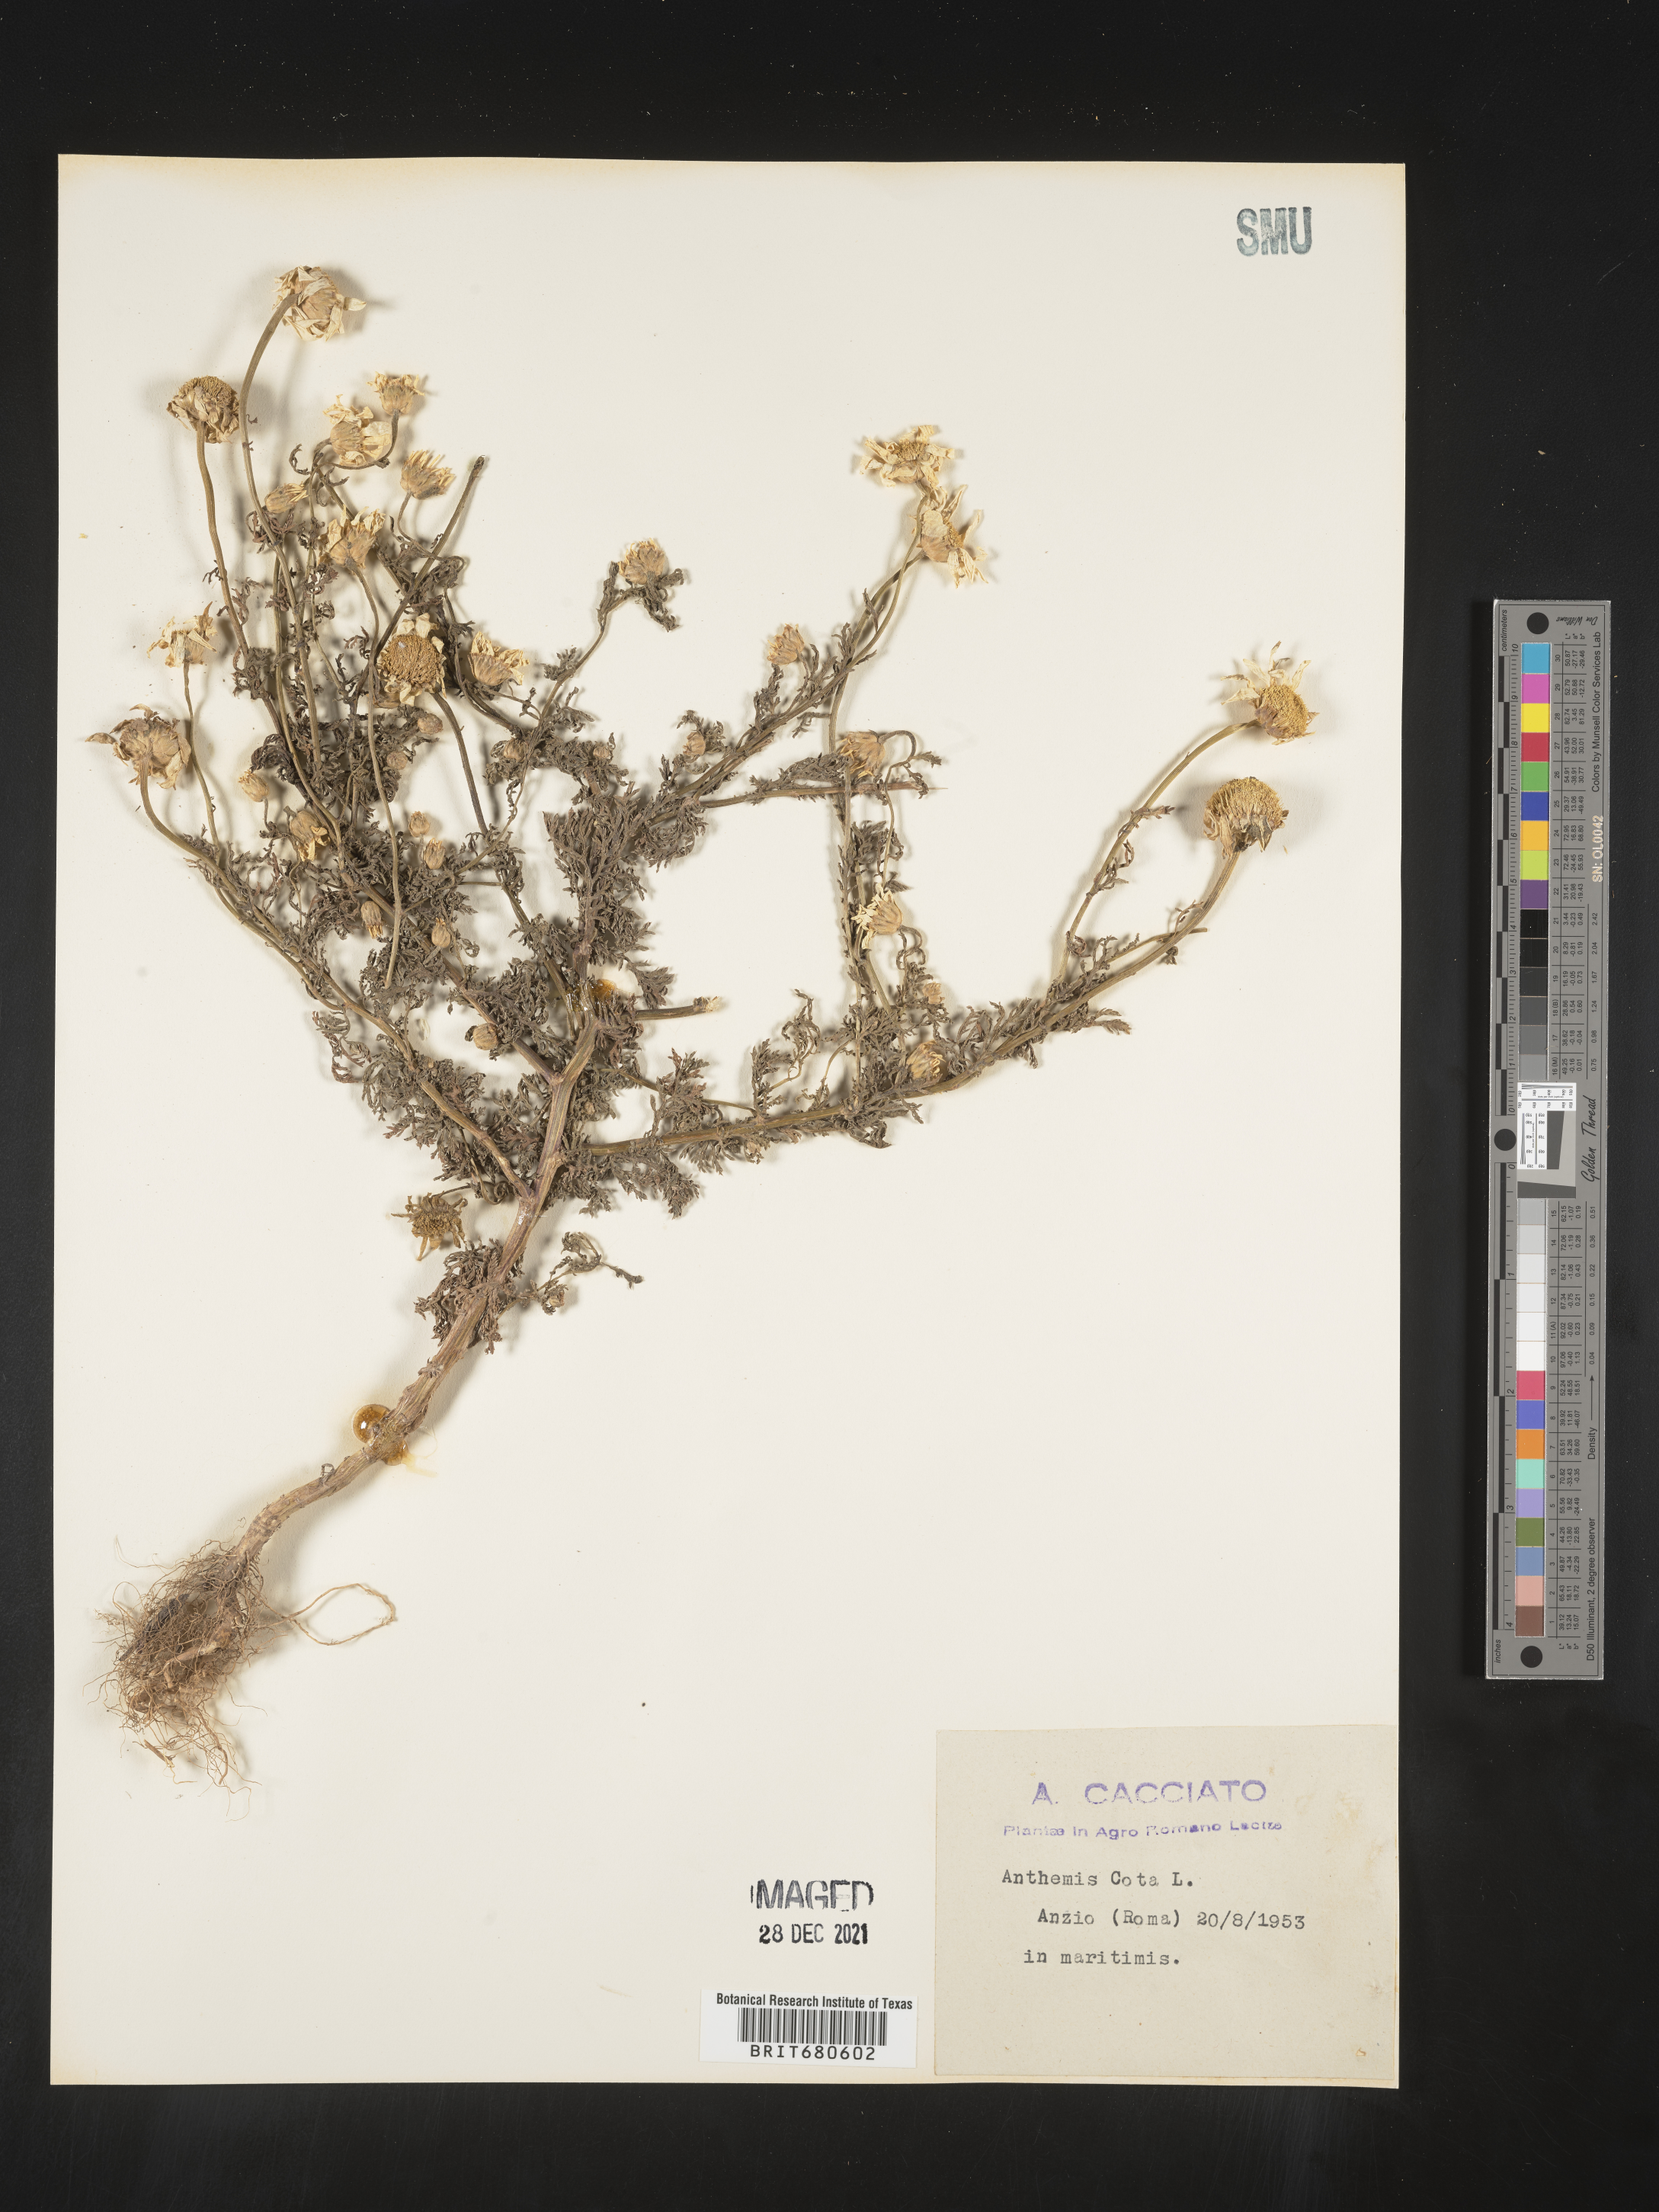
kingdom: Plantae
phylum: Tracheophyta
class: Magnoliopsida
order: Asterales
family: Asteraceae
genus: Anthemis
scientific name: Anthemis
